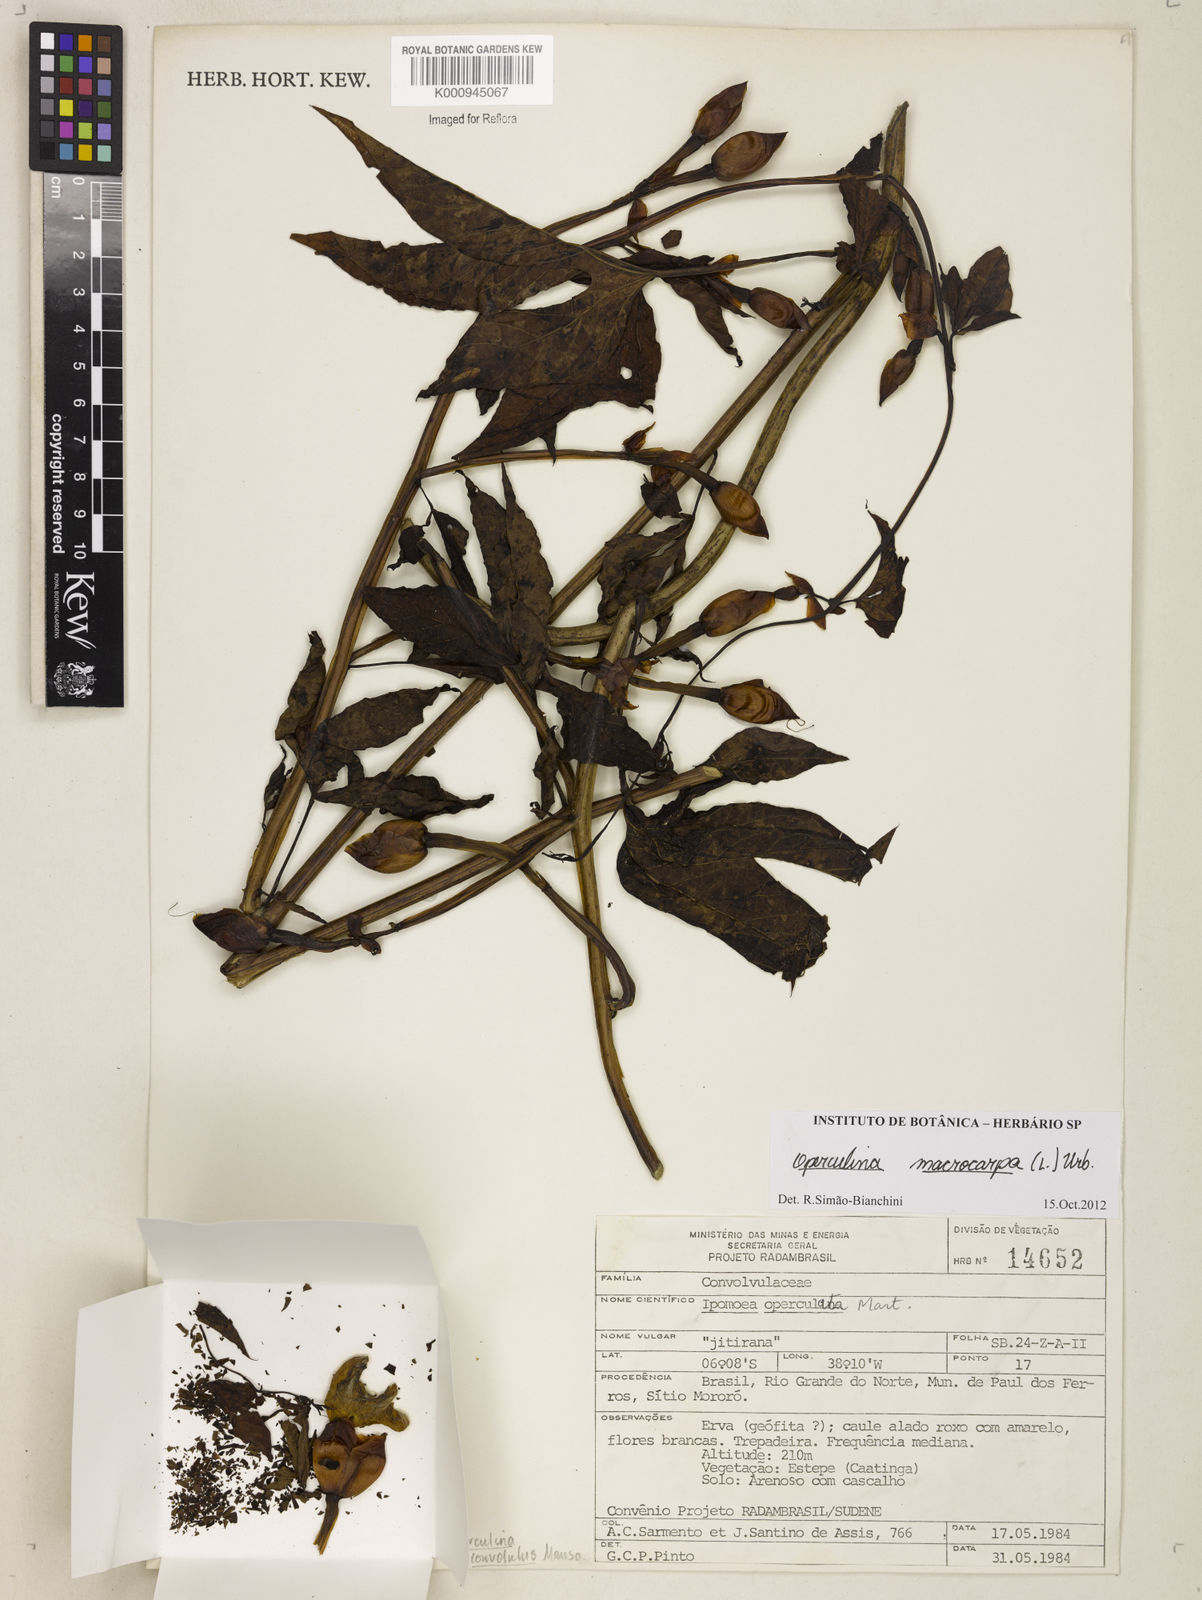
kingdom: Plantae
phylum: Tracheophyta
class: Magnoliopsida
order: Solanales
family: Convolvulaceae
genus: Operculina
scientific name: Operculina macrocarpa
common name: Brazilian jalap
